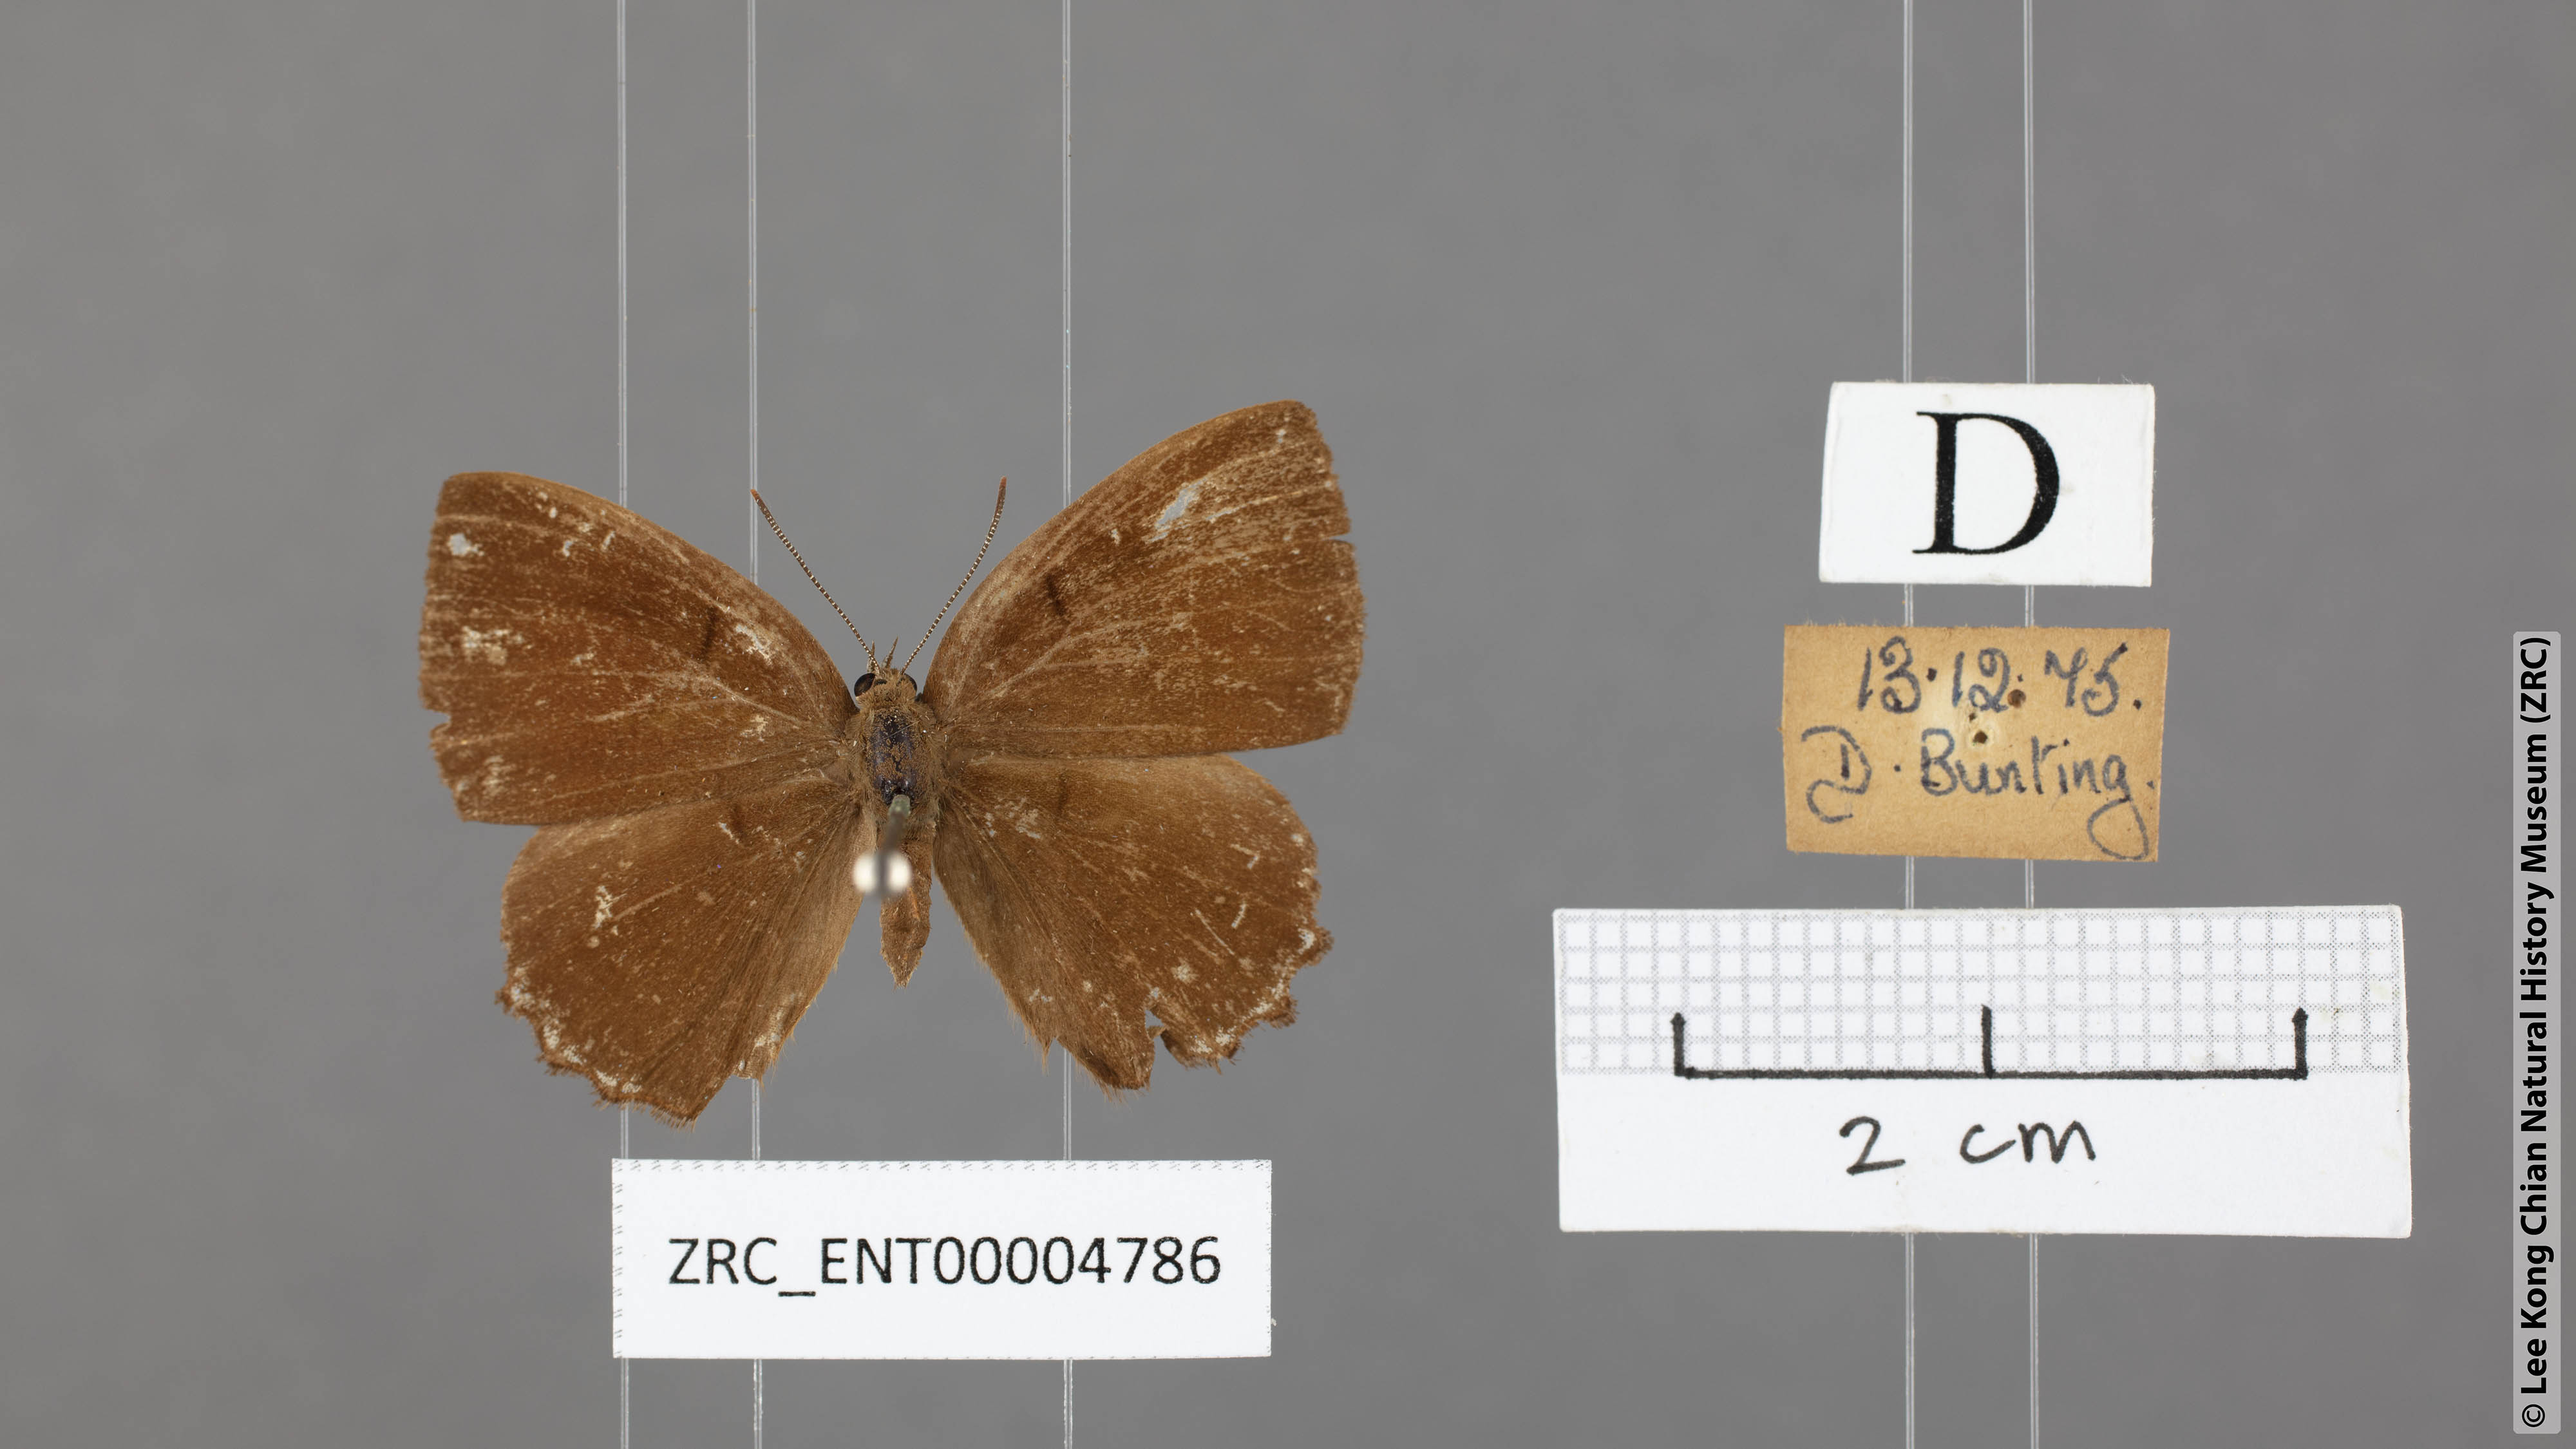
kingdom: Animalia
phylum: Arthropoda
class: Insecta
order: Lepidoptera
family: Lycaenidae
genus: Simiskina
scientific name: Simiskina
